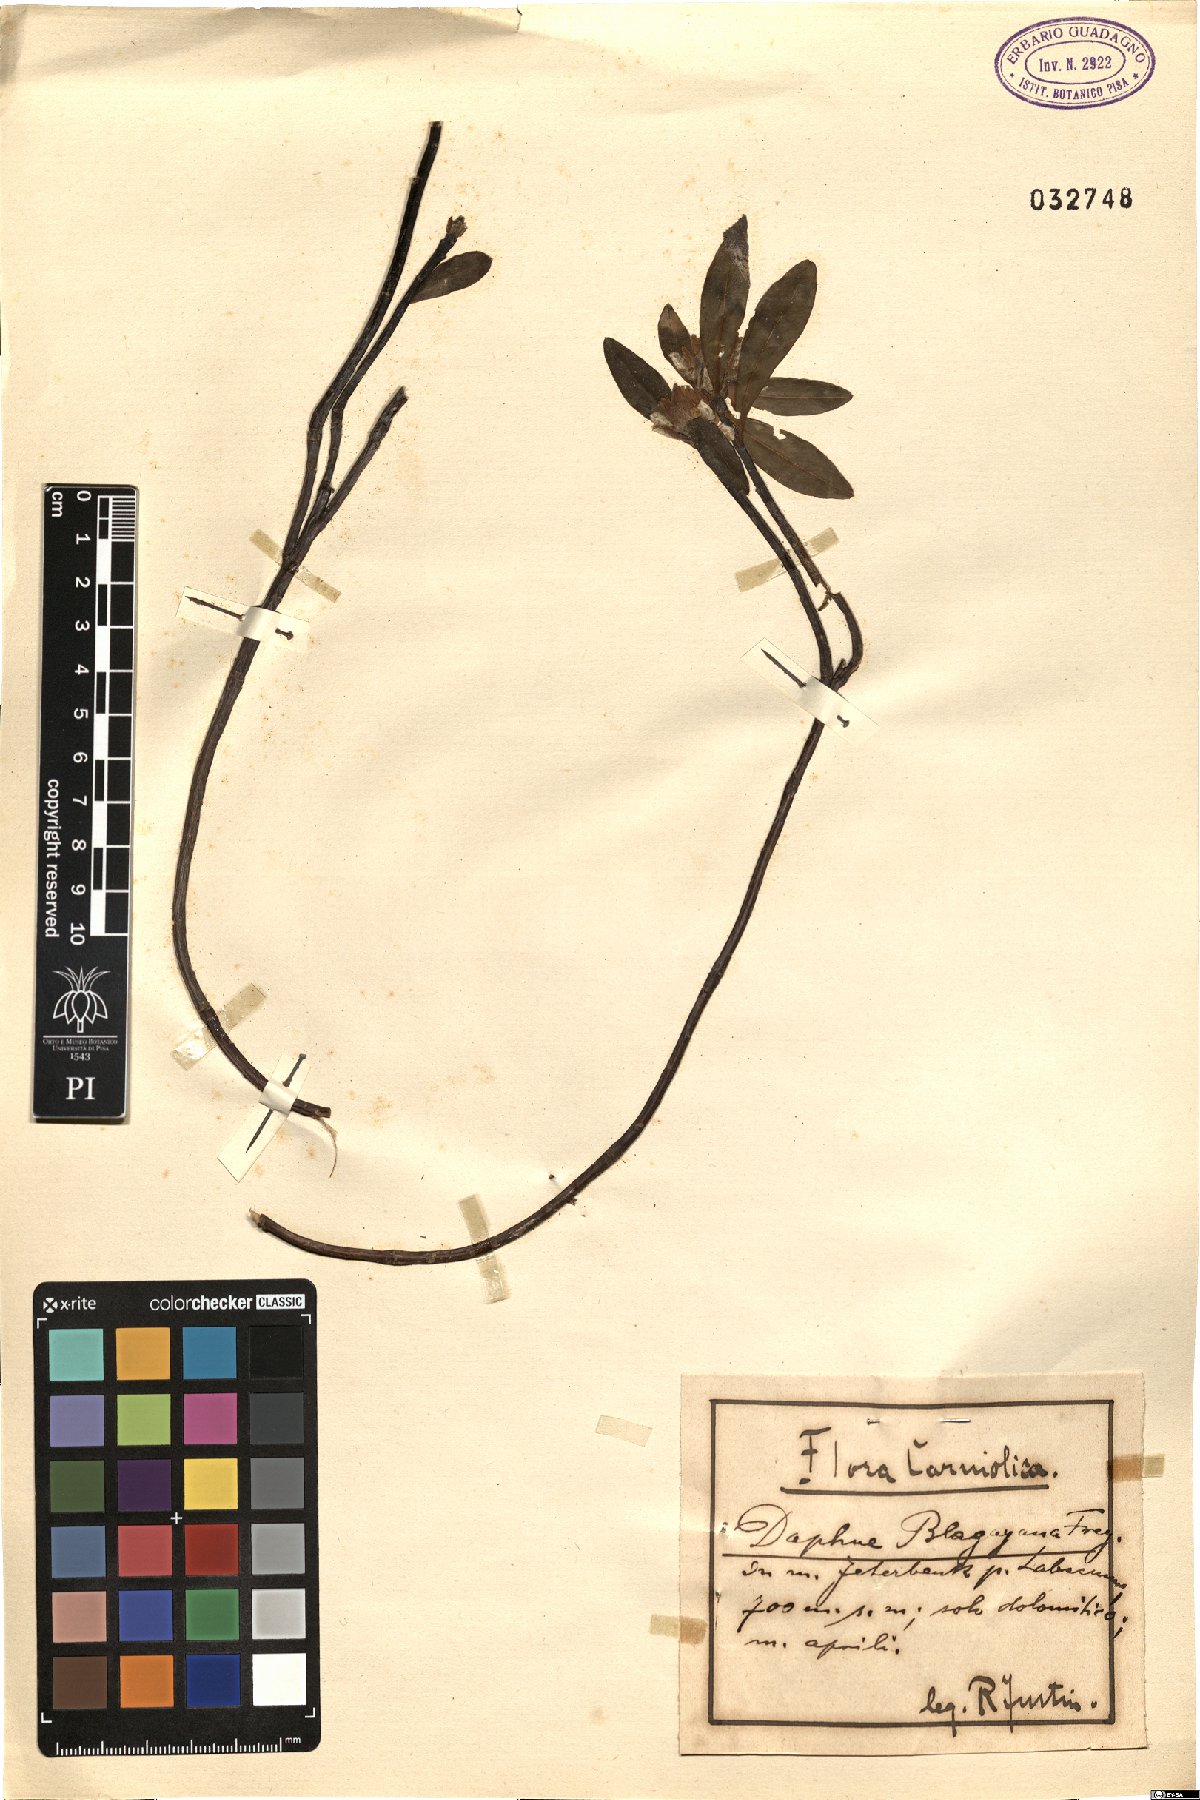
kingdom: Plantae
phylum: Tracheophyta
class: Magnoliopsida
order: Malvales
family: Thymelaeaceae
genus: Daphne
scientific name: Daphne blagayana
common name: Balkan daphne
